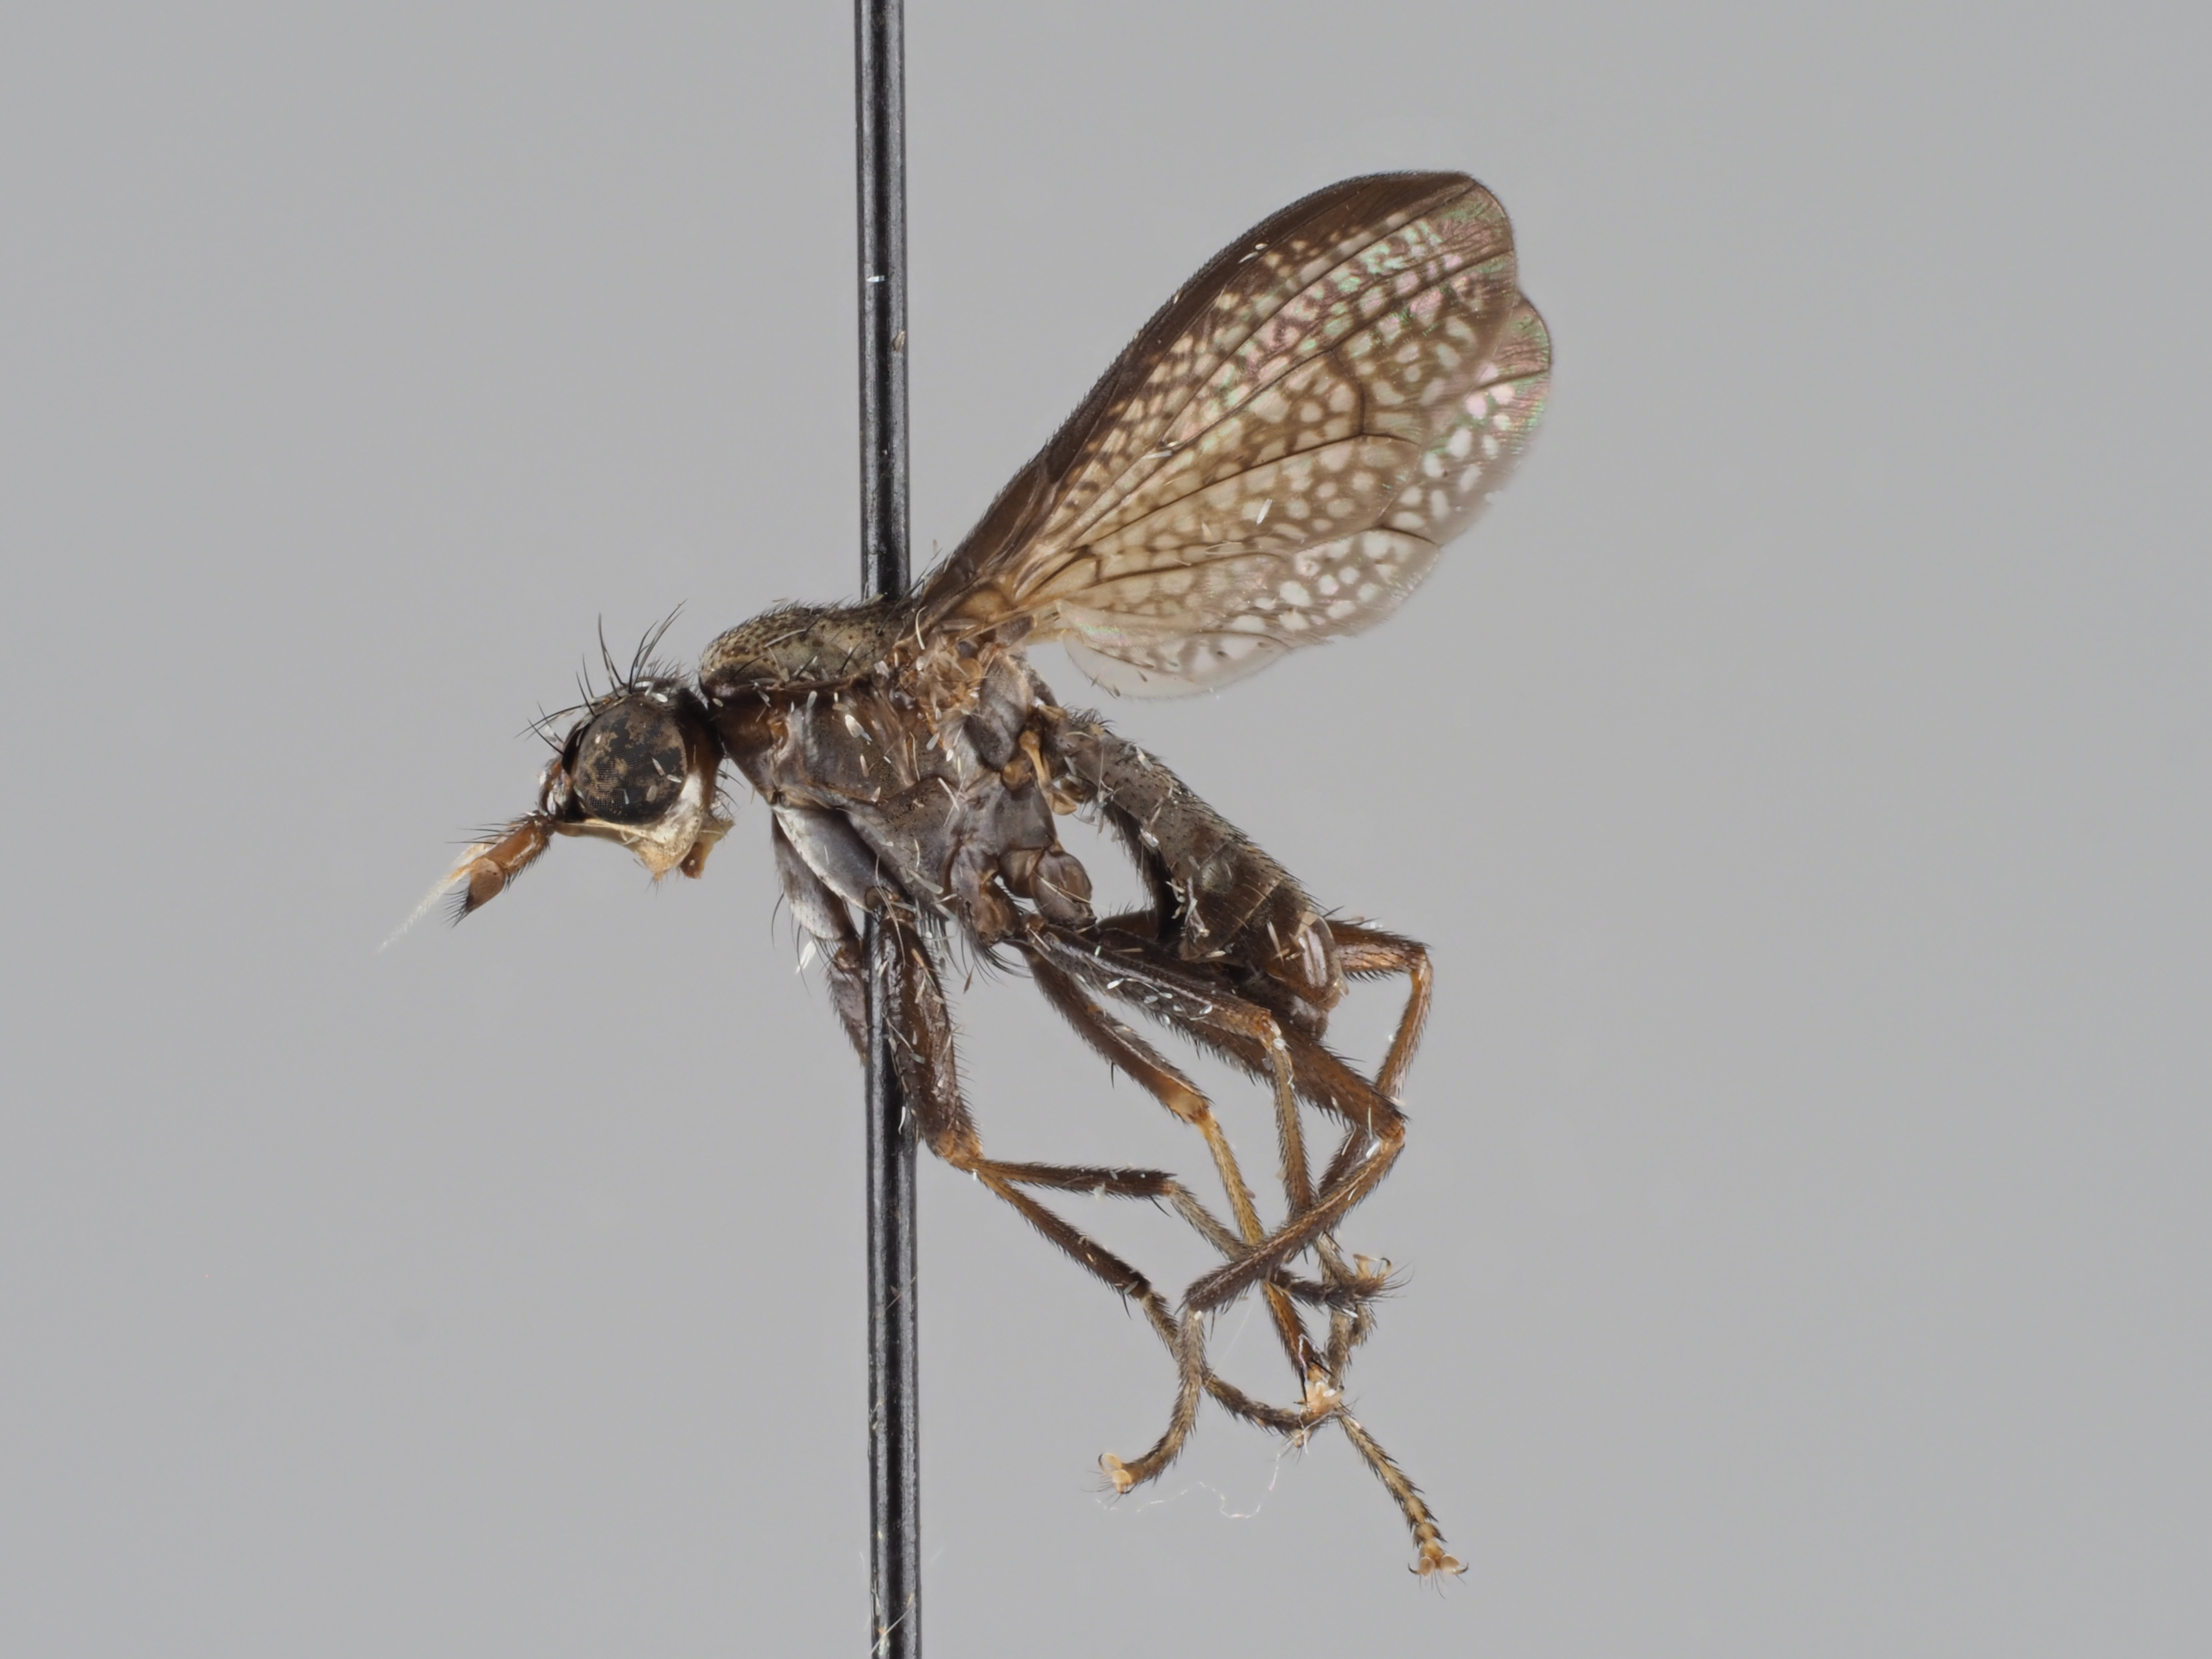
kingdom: Animalia
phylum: Arthropoda
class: Insecta
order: Diptera
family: Sciomyzidae
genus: Coremacera
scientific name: Coremacera marginata
